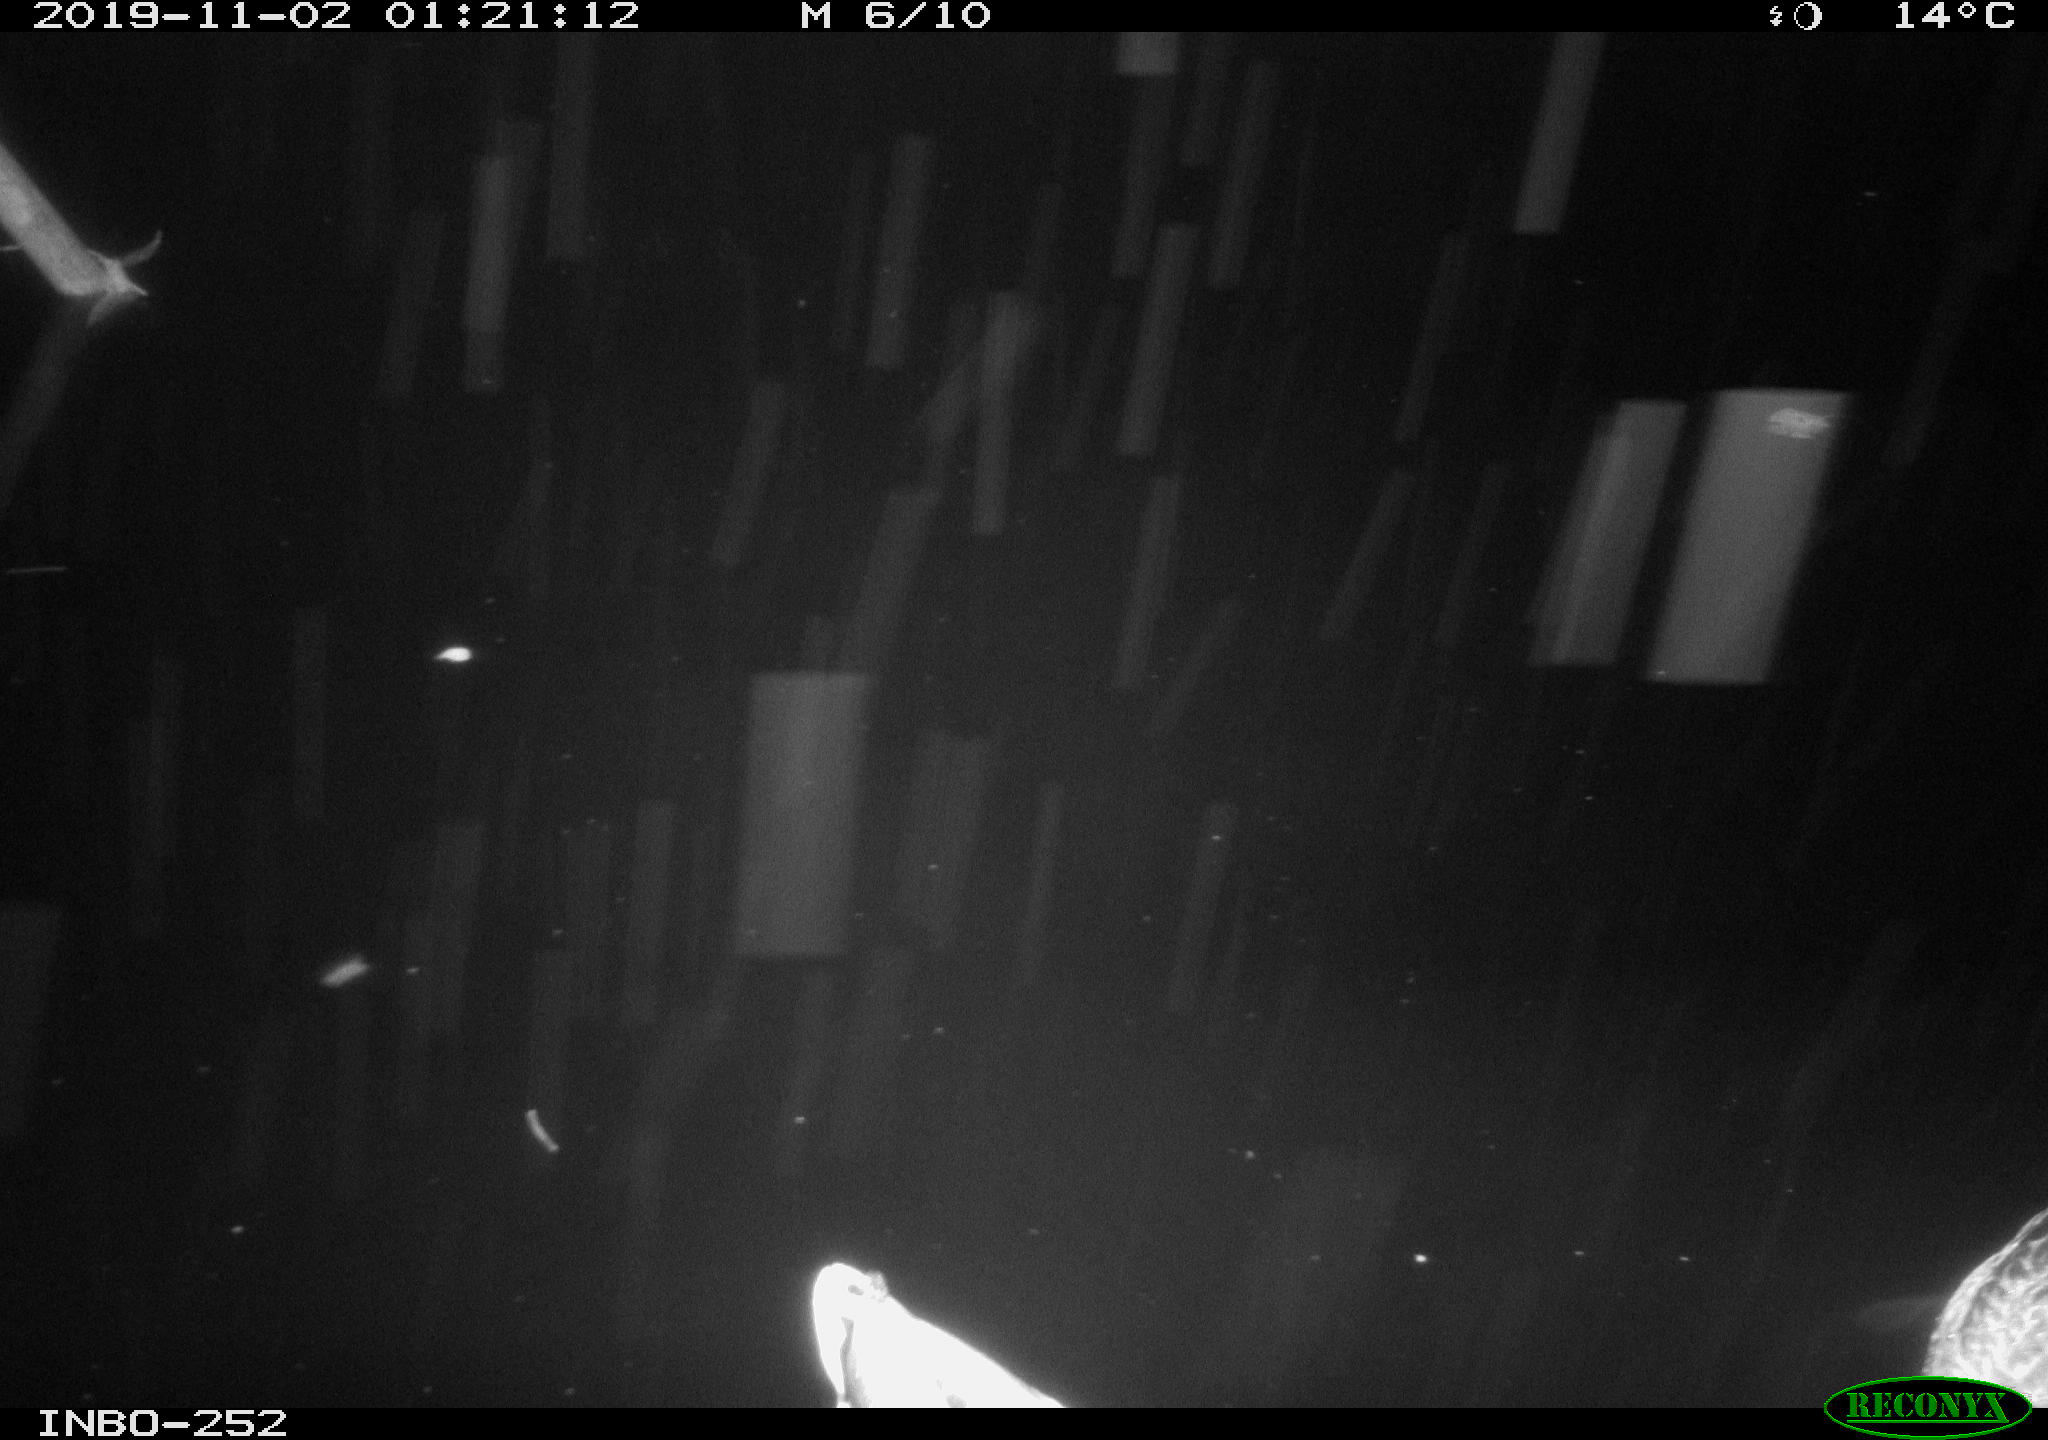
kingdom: Animalia
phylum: Chordata
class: Aves
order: Anseriformes
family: Anatidae
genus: Anas
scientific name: Anas platyrhynchos
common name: Mallard
